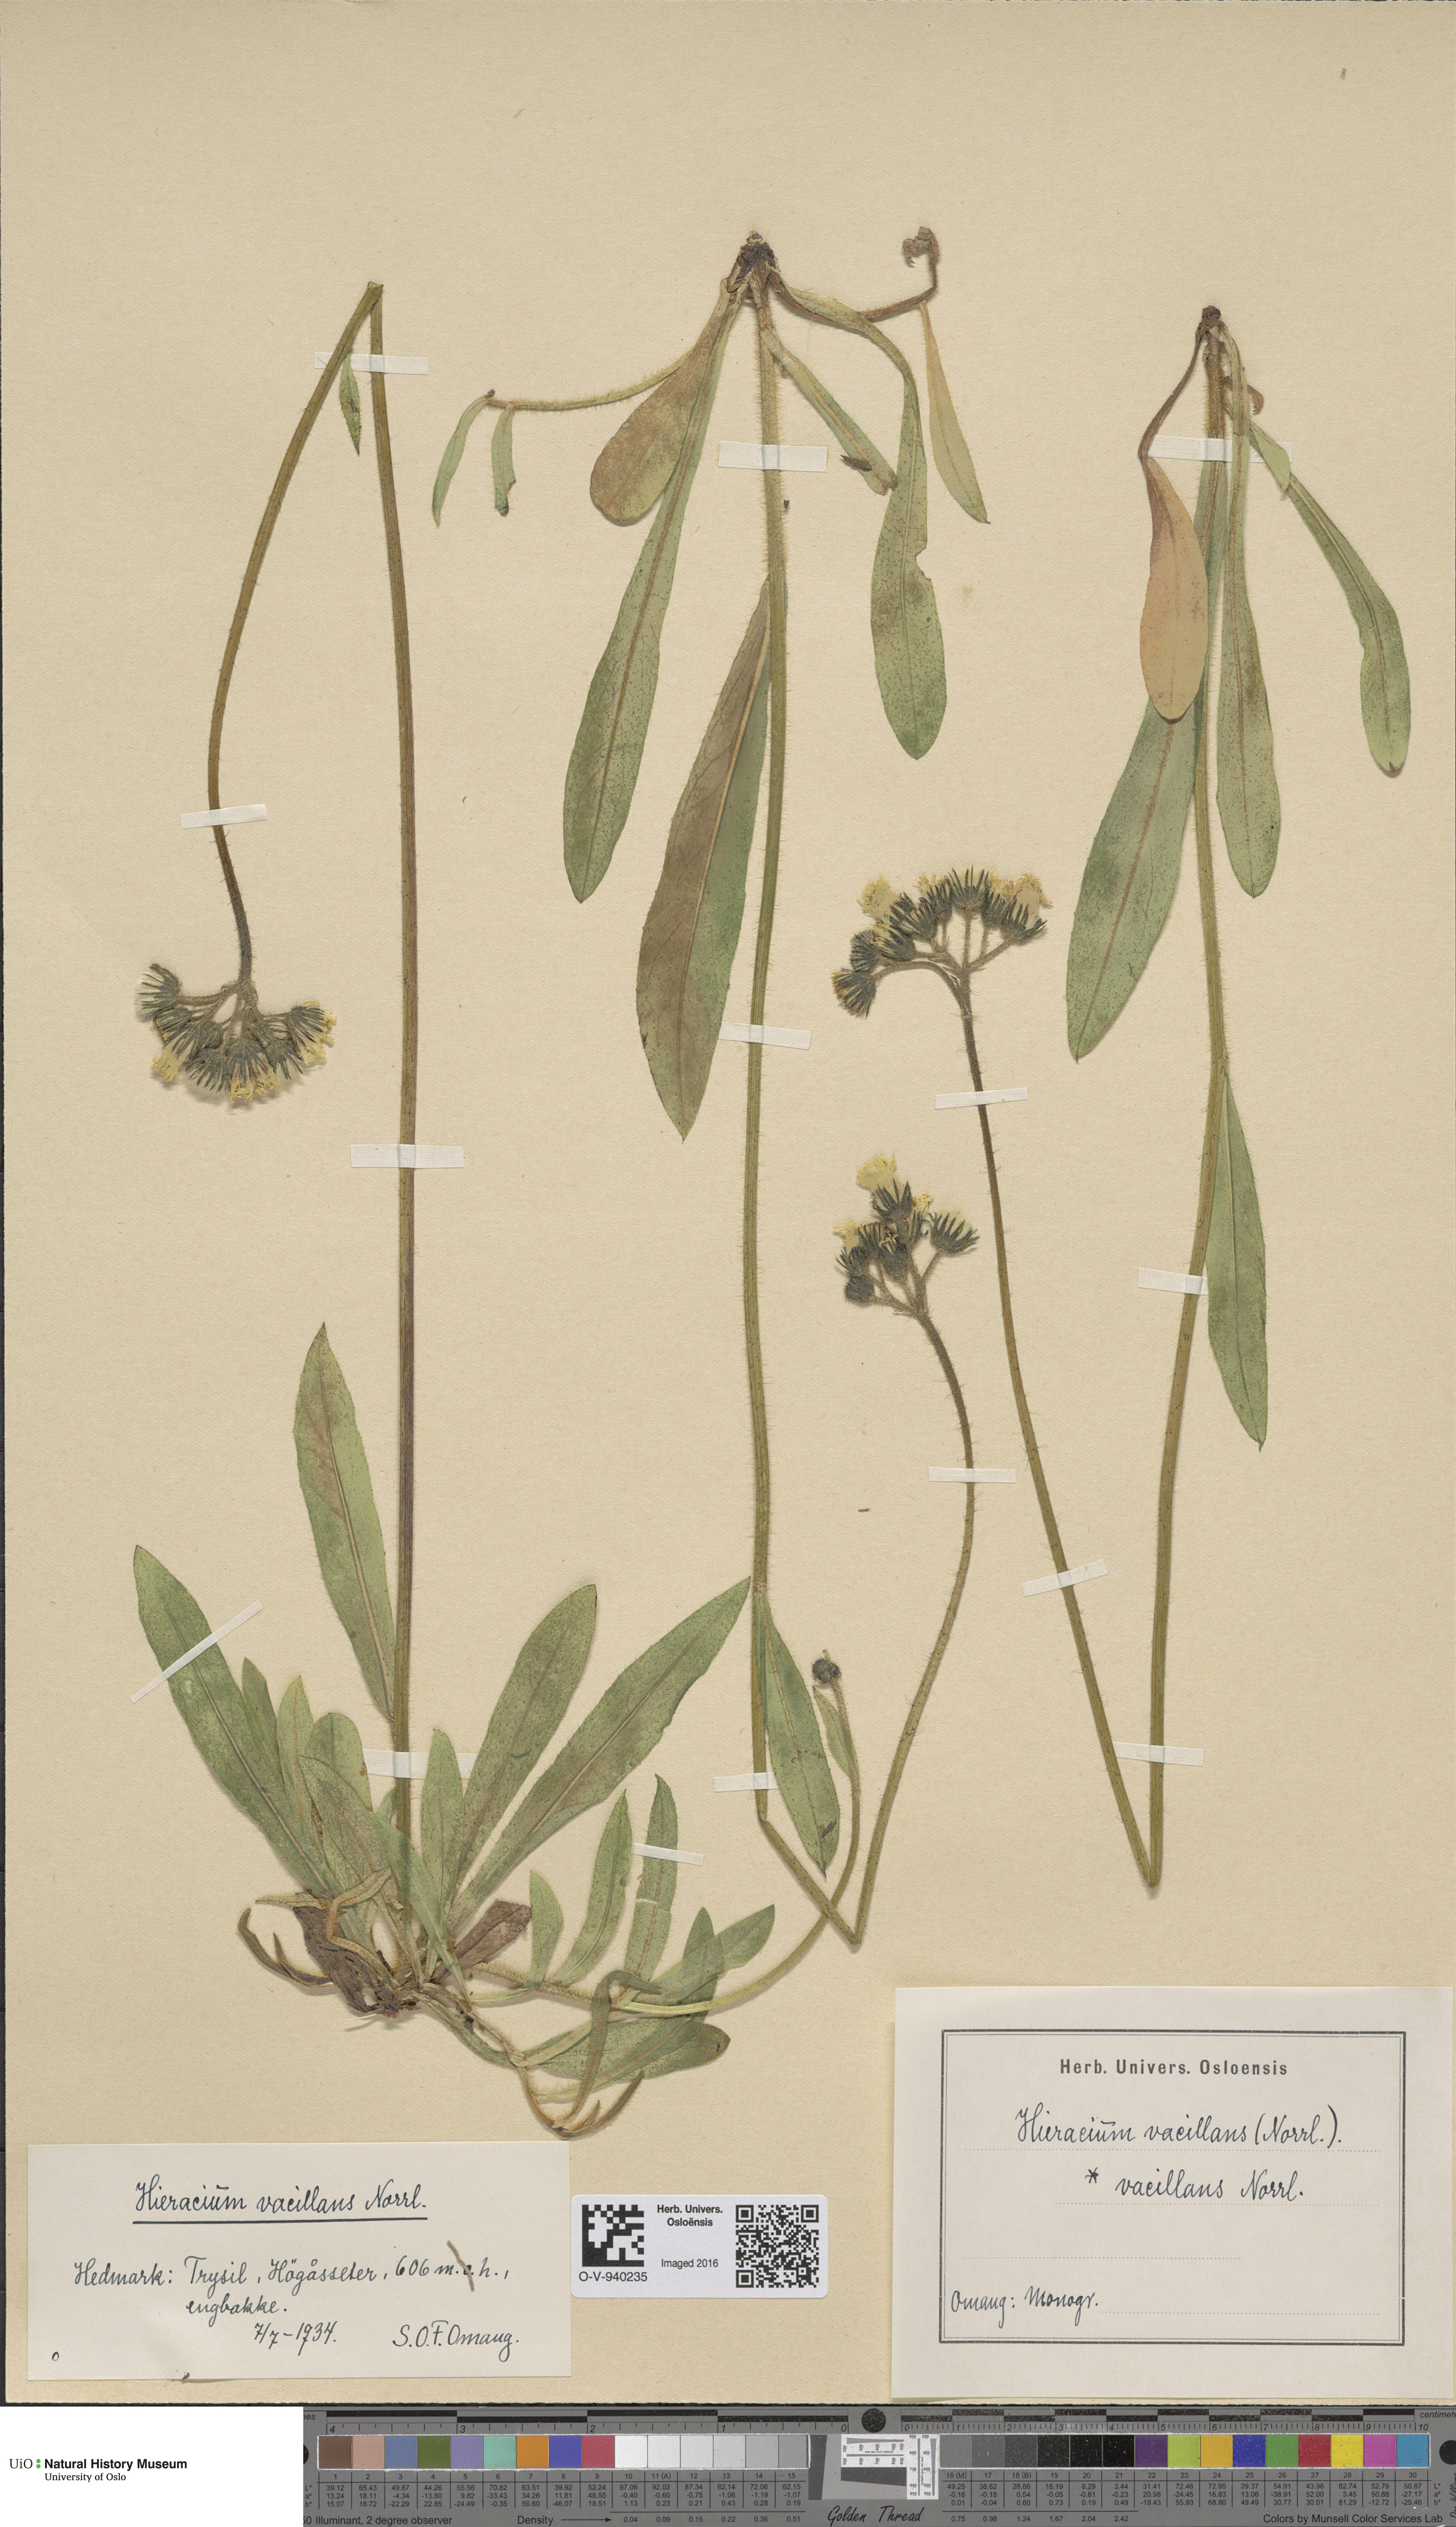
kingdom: Plantae
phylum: Tracheophyta
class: Magnoliopsida
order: Asterales
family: Asteraceae
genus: Pilosella
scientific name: Pilosella glomerata
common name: Queen devil hawkweed
